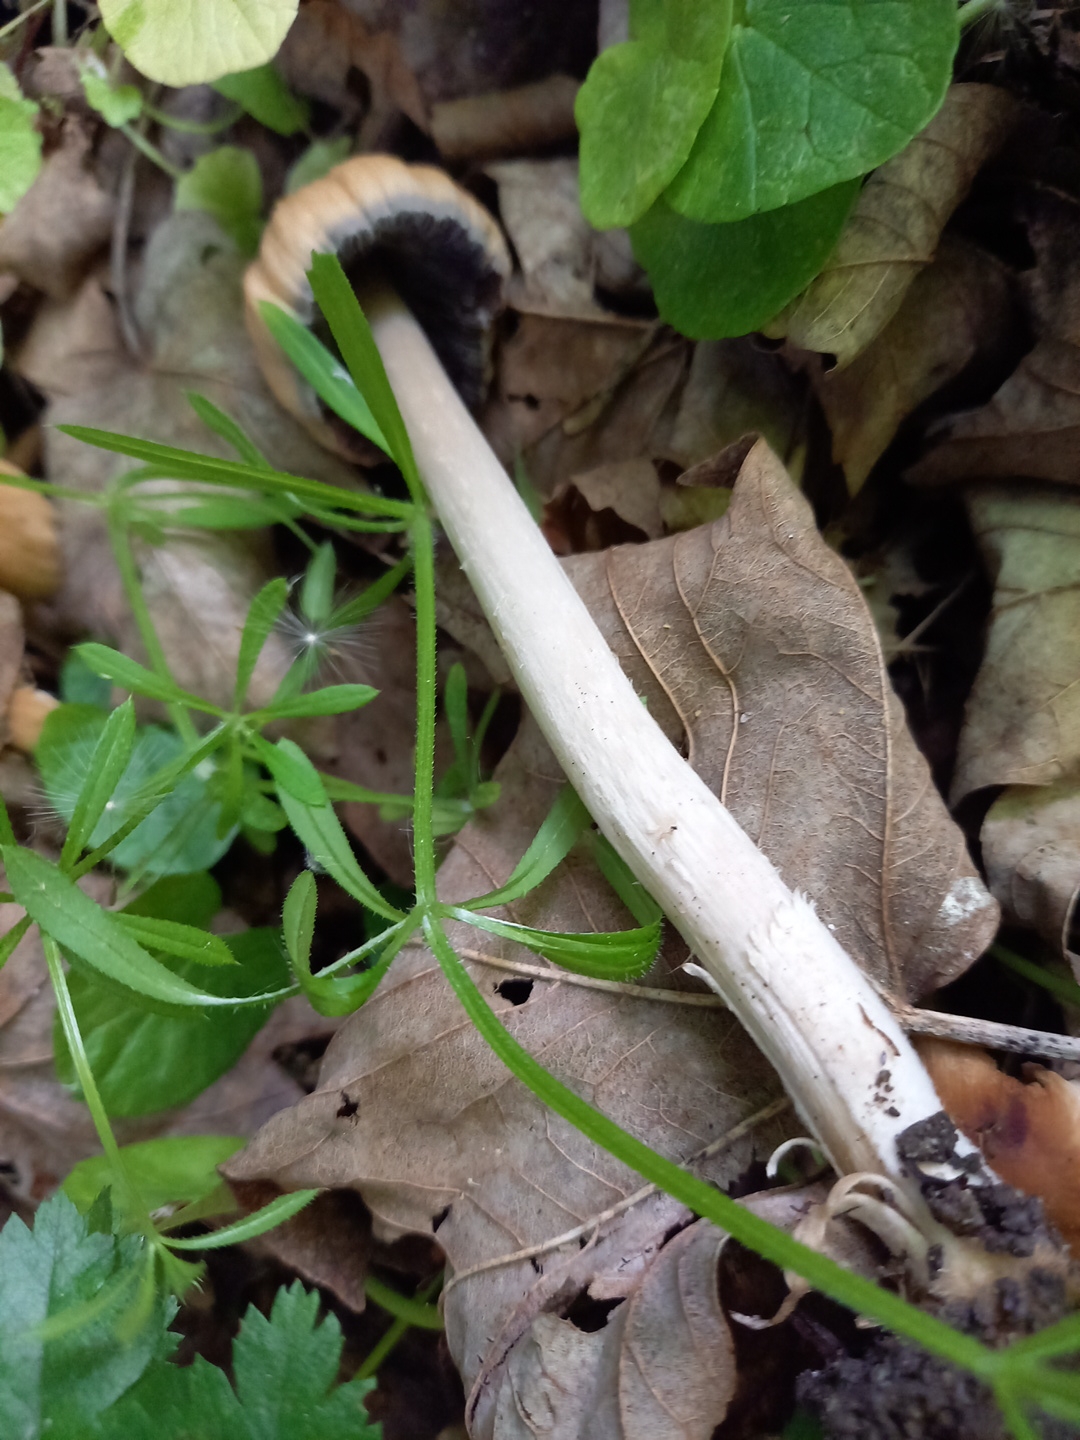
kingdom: Fungi
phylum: Basidiomycota
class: Agaricomycetes
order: Agaricales
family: Psathyrellaceae
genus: Coprinellus
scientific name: Coprinellus micaceus
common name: glimmer-blækhat
